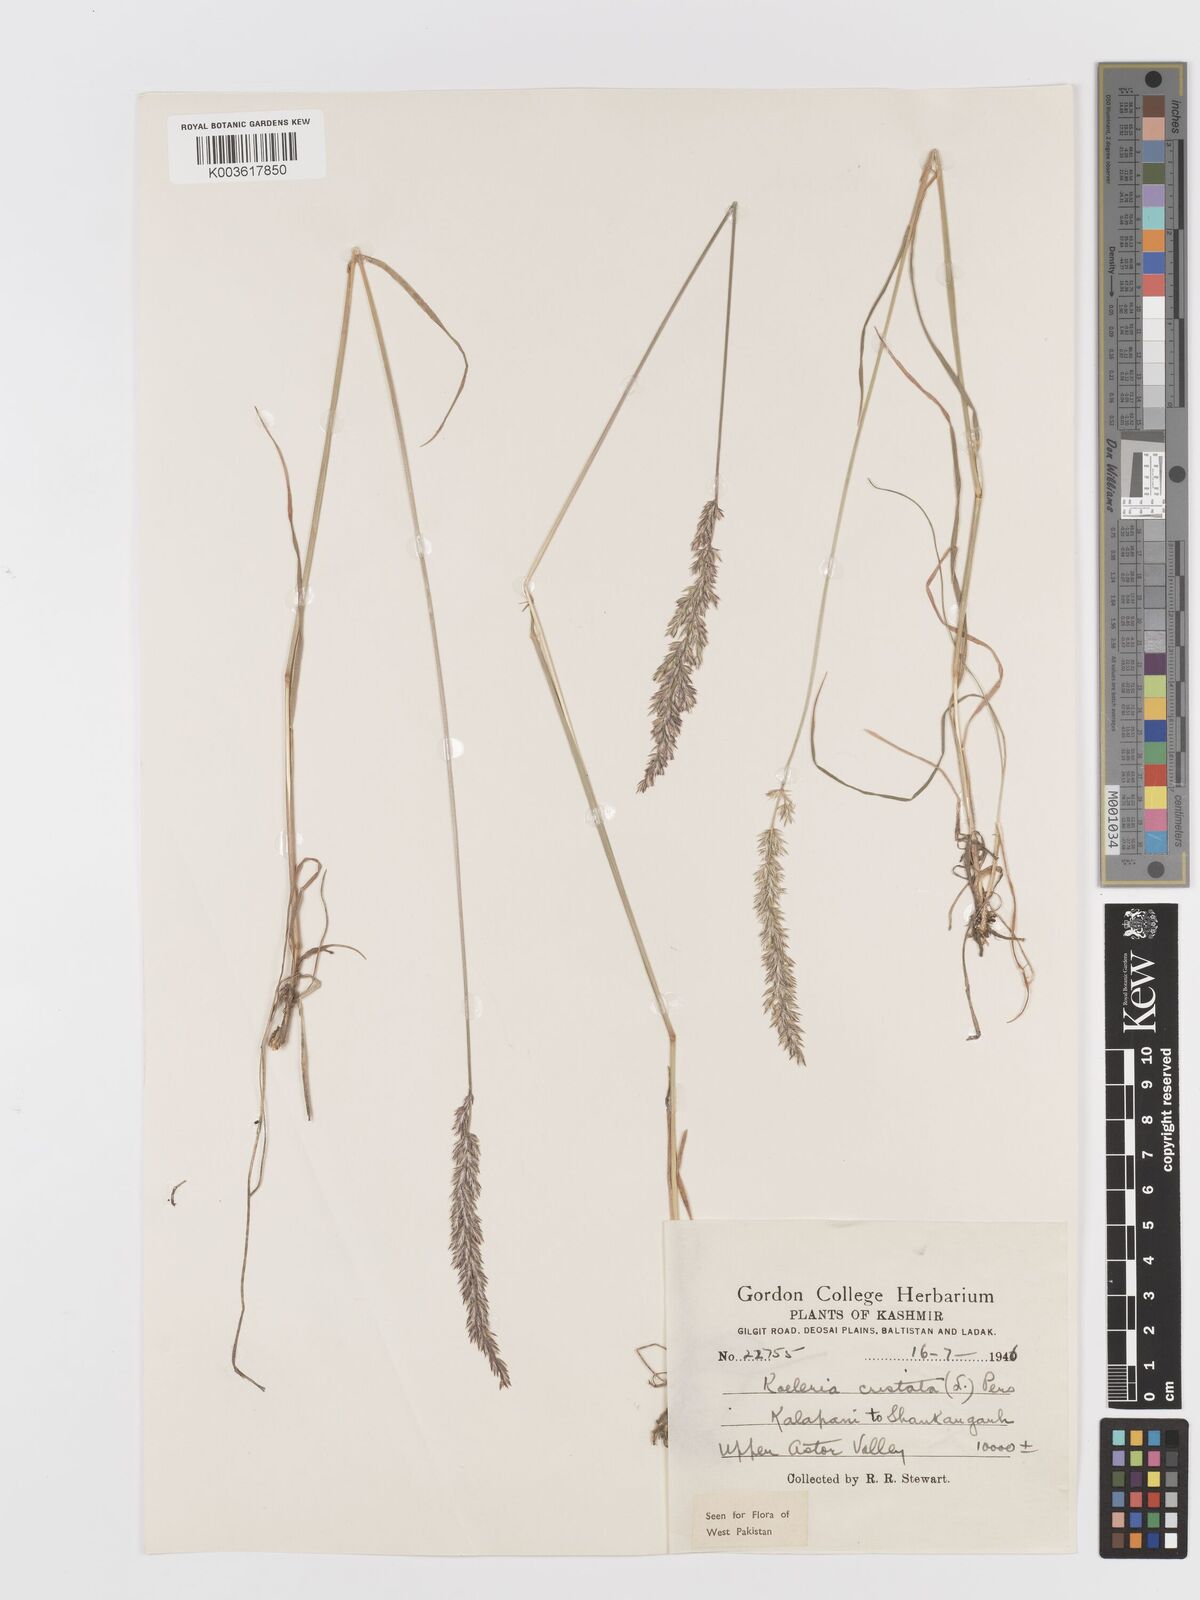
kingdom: Plantae
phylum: Tracheophyta
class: Liliopsida
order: Poales
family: Poaceae
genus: Koeleria
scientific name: Koeleria macrantha
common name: Crested hair-grass
